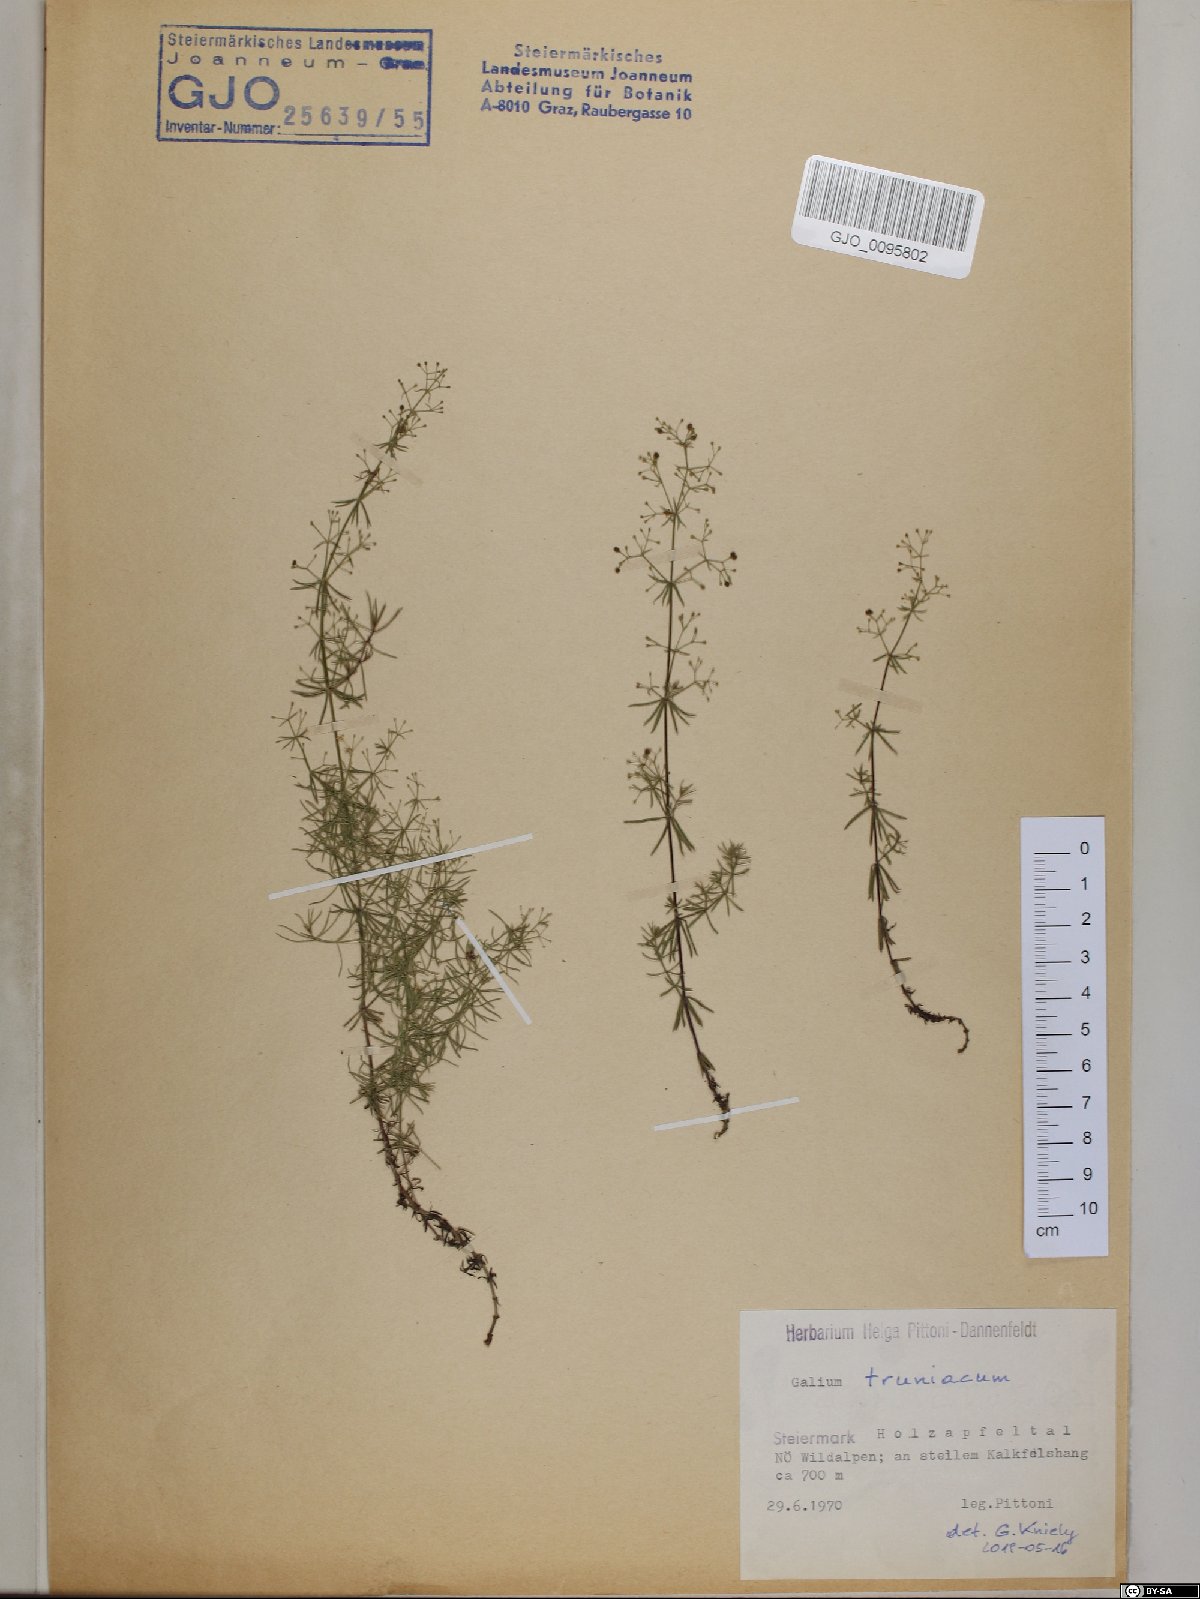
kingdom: Plantae
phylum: Tracheophyta
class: Magnoliopsida
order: Gentianales
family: Rubiaceae
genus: Galium
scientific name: Galium truniacum
